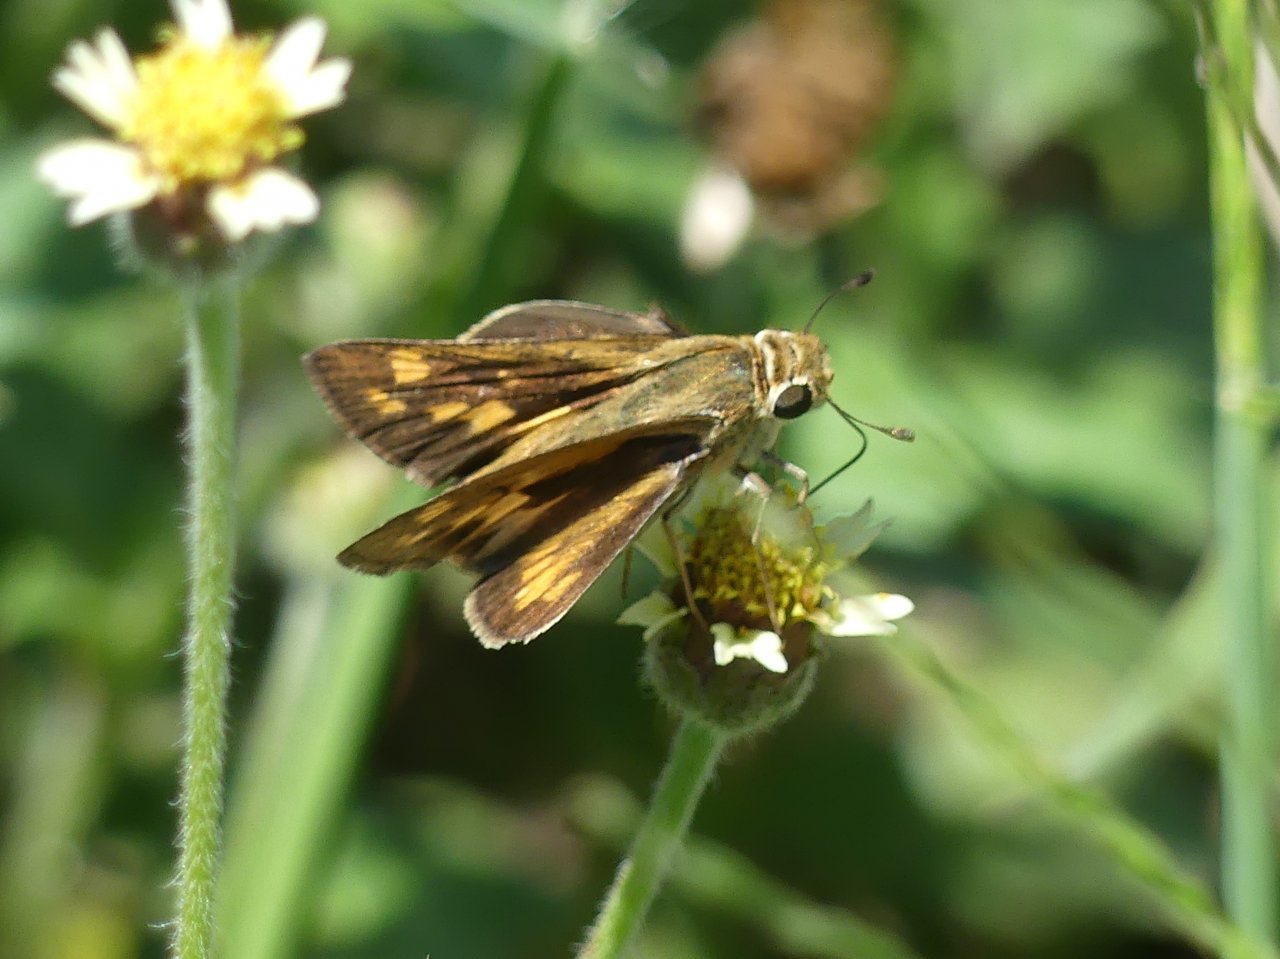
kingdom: Animalia
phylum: Arthropoda
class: Insecta
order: Lepidoptera
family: Hesperiidae
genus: Hylephila
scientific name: Hylephila phyleus
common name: Fiery Skipper
